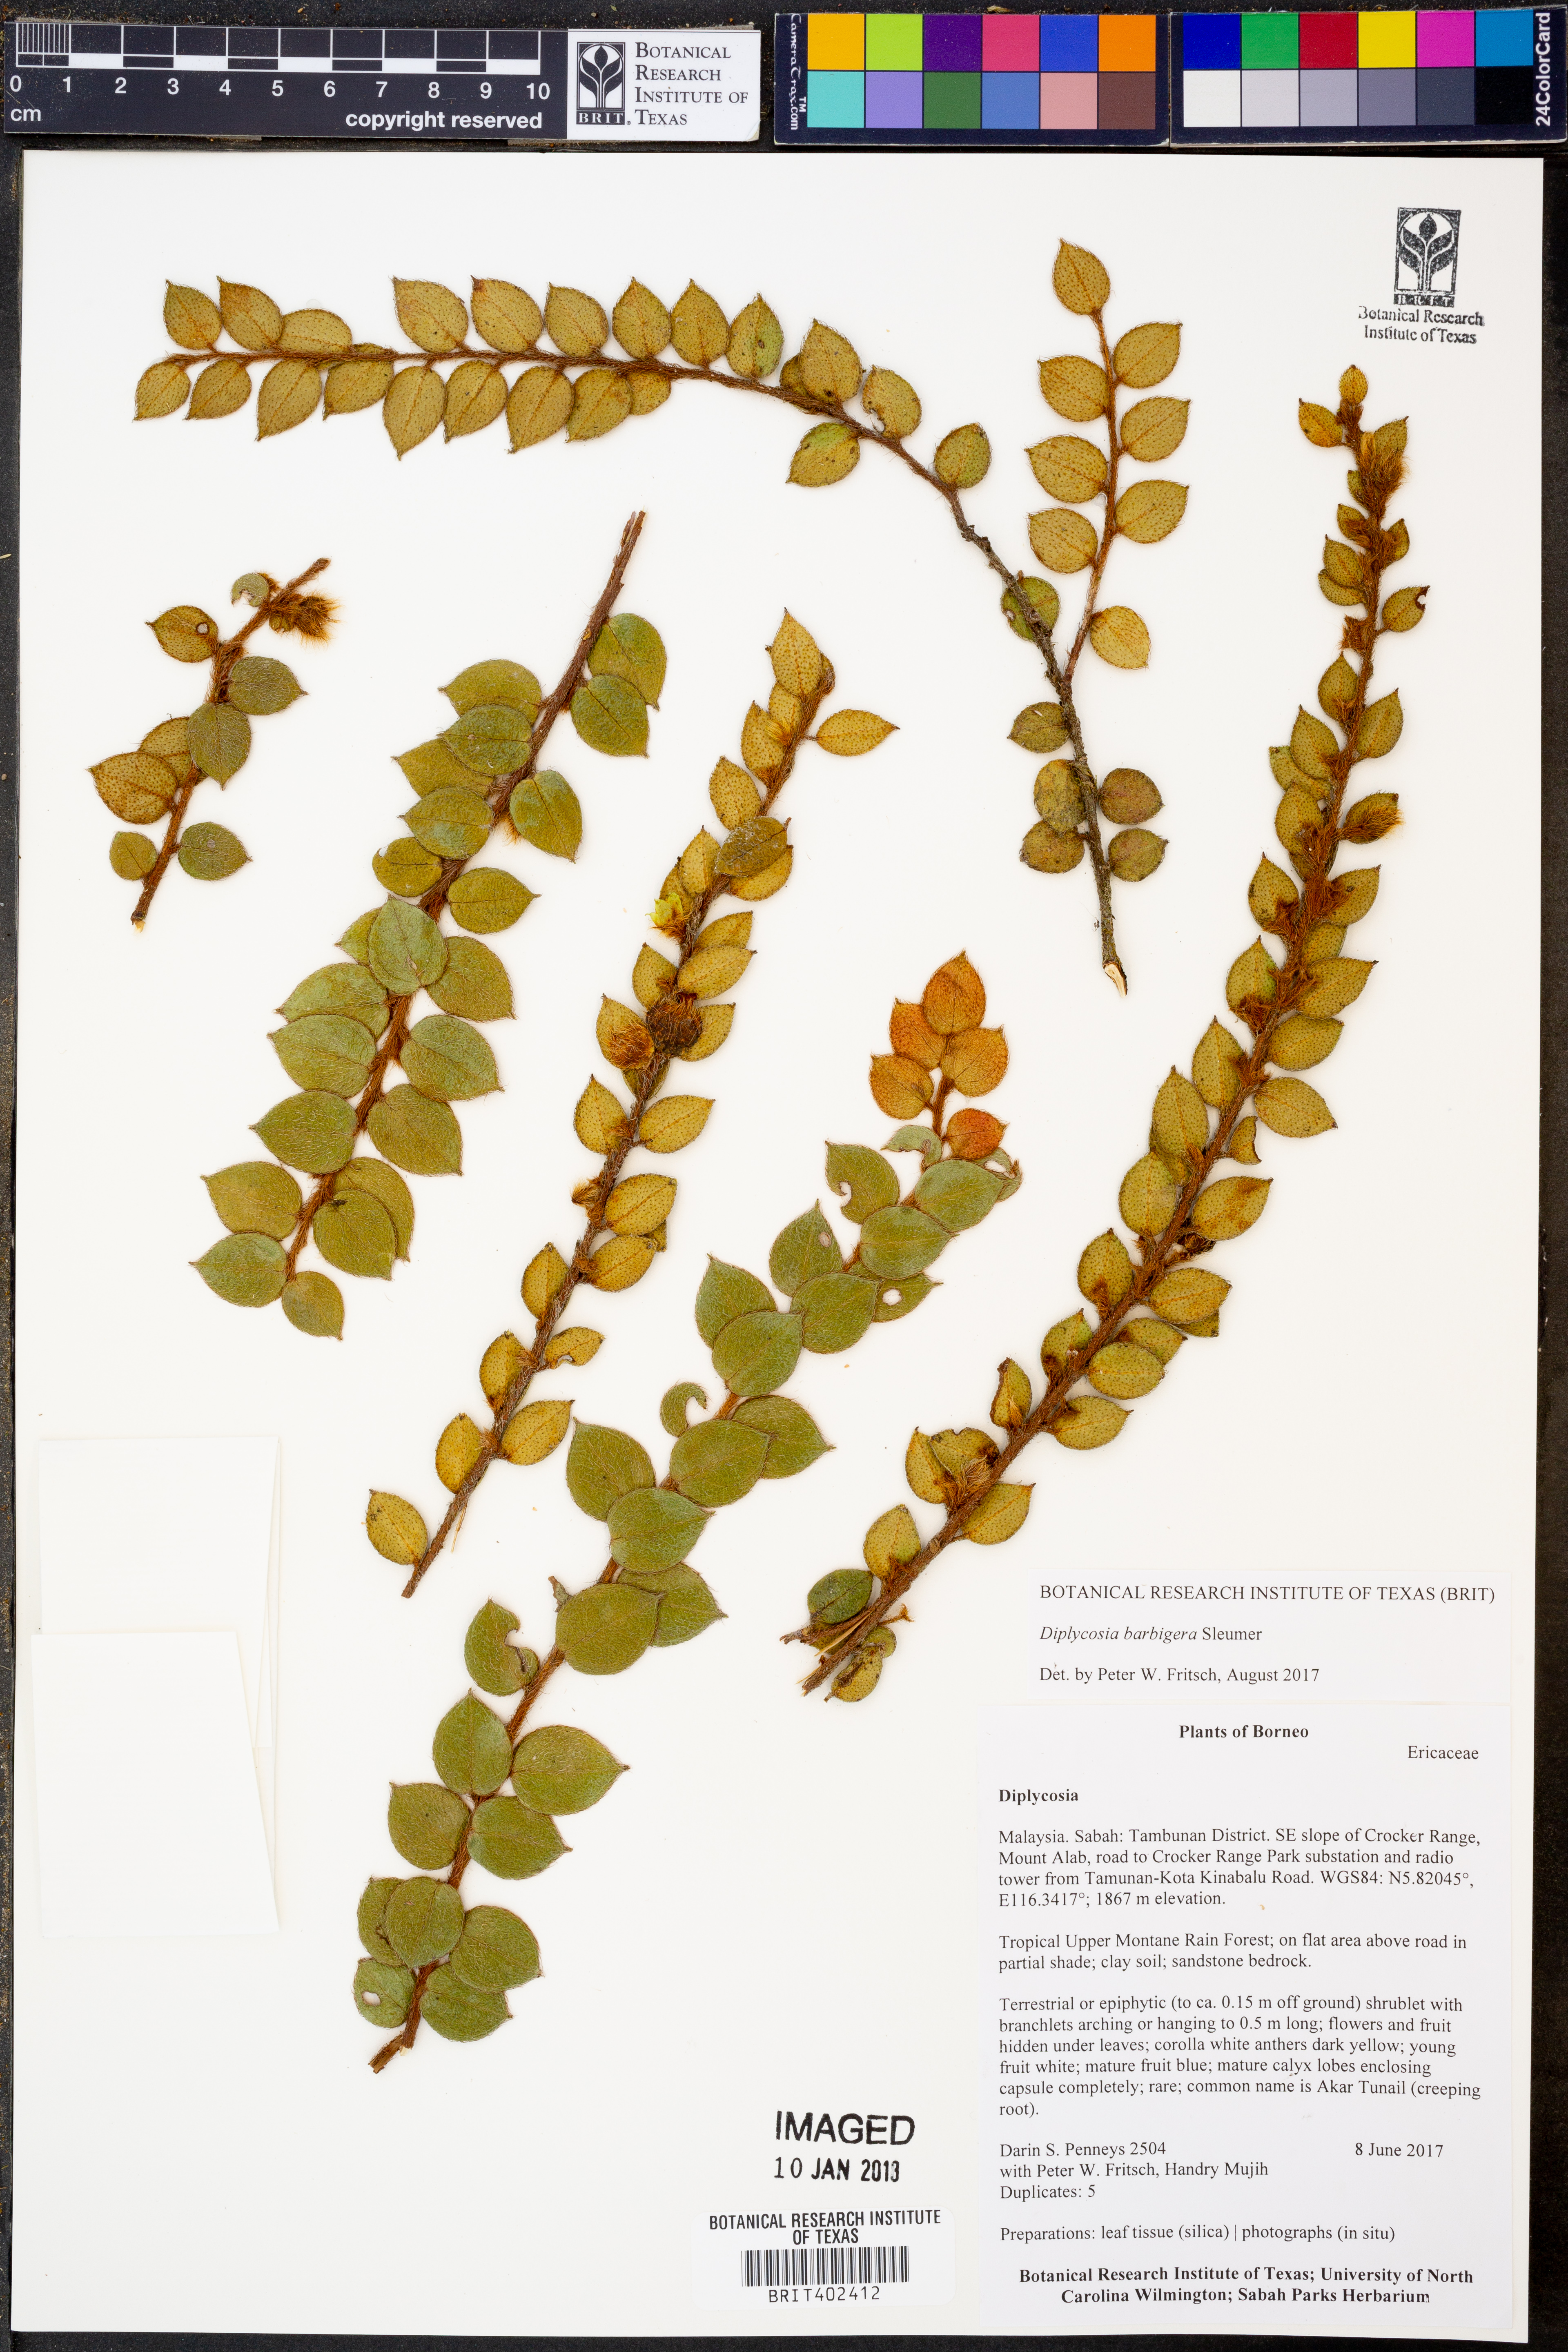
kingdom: Plantae
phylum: Tracheophyta
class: Magnoliopsida
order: Ericales
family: Ericaceae
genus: Gaultheria
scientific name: Gaultheria barbigera
